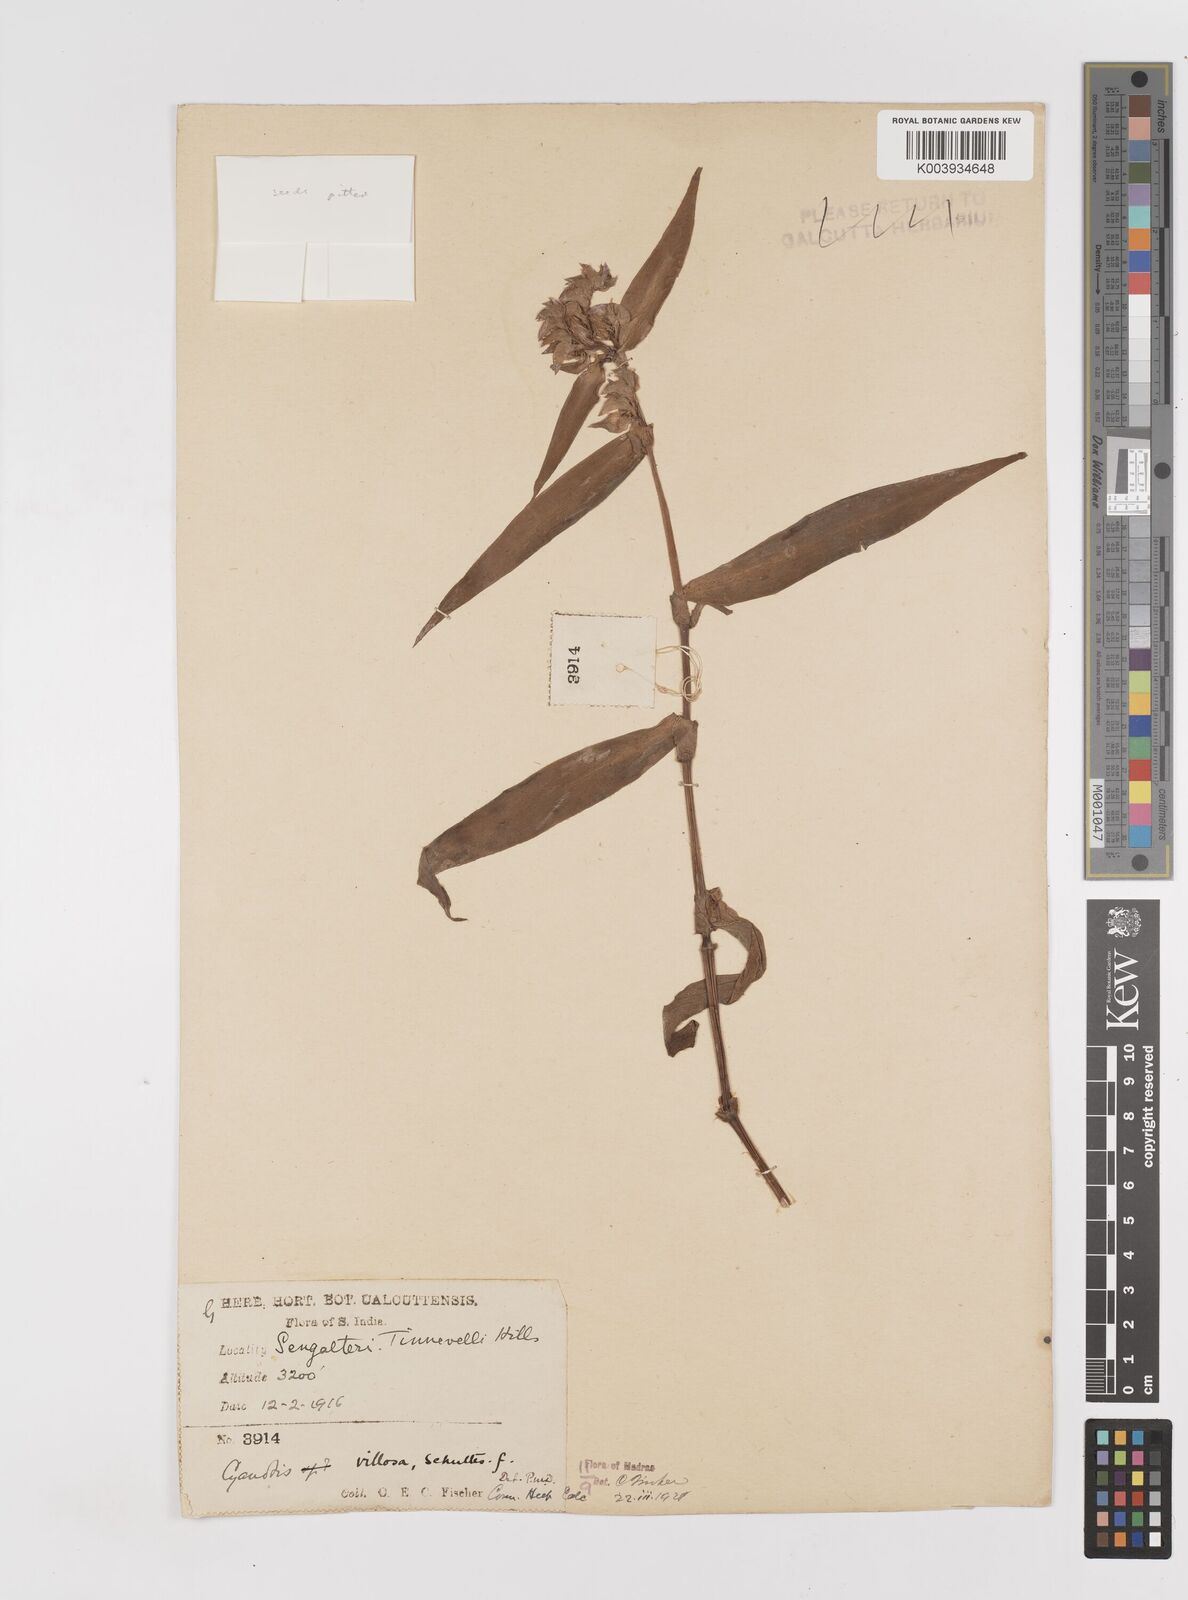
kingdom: Plantae
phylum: Tracheophyta
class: Liliopsida
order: Commelinales
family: Commelinaceae
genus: Cyanotis
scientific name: Cyanotis villosa
